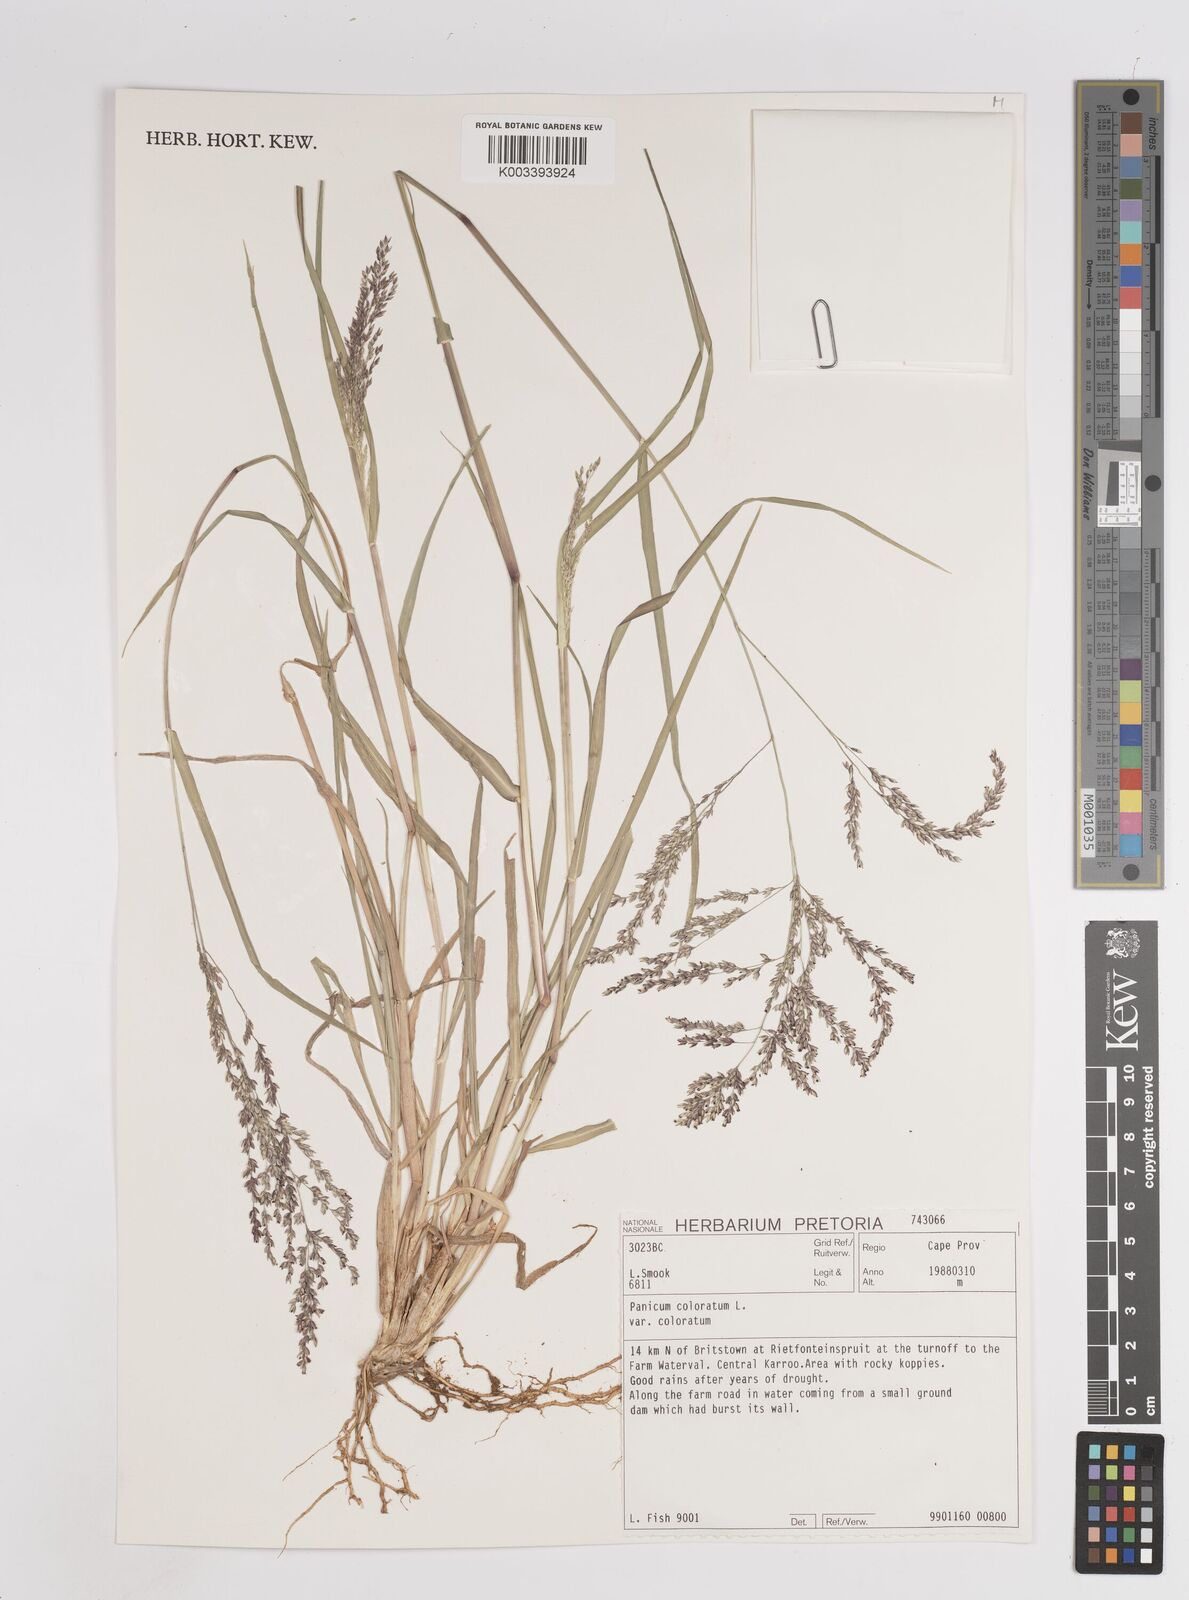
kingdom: Plantae
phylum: Tracheophyta
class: Liliopsida
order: Poales
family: Poaceae
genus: Panicum
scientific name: Panicum
